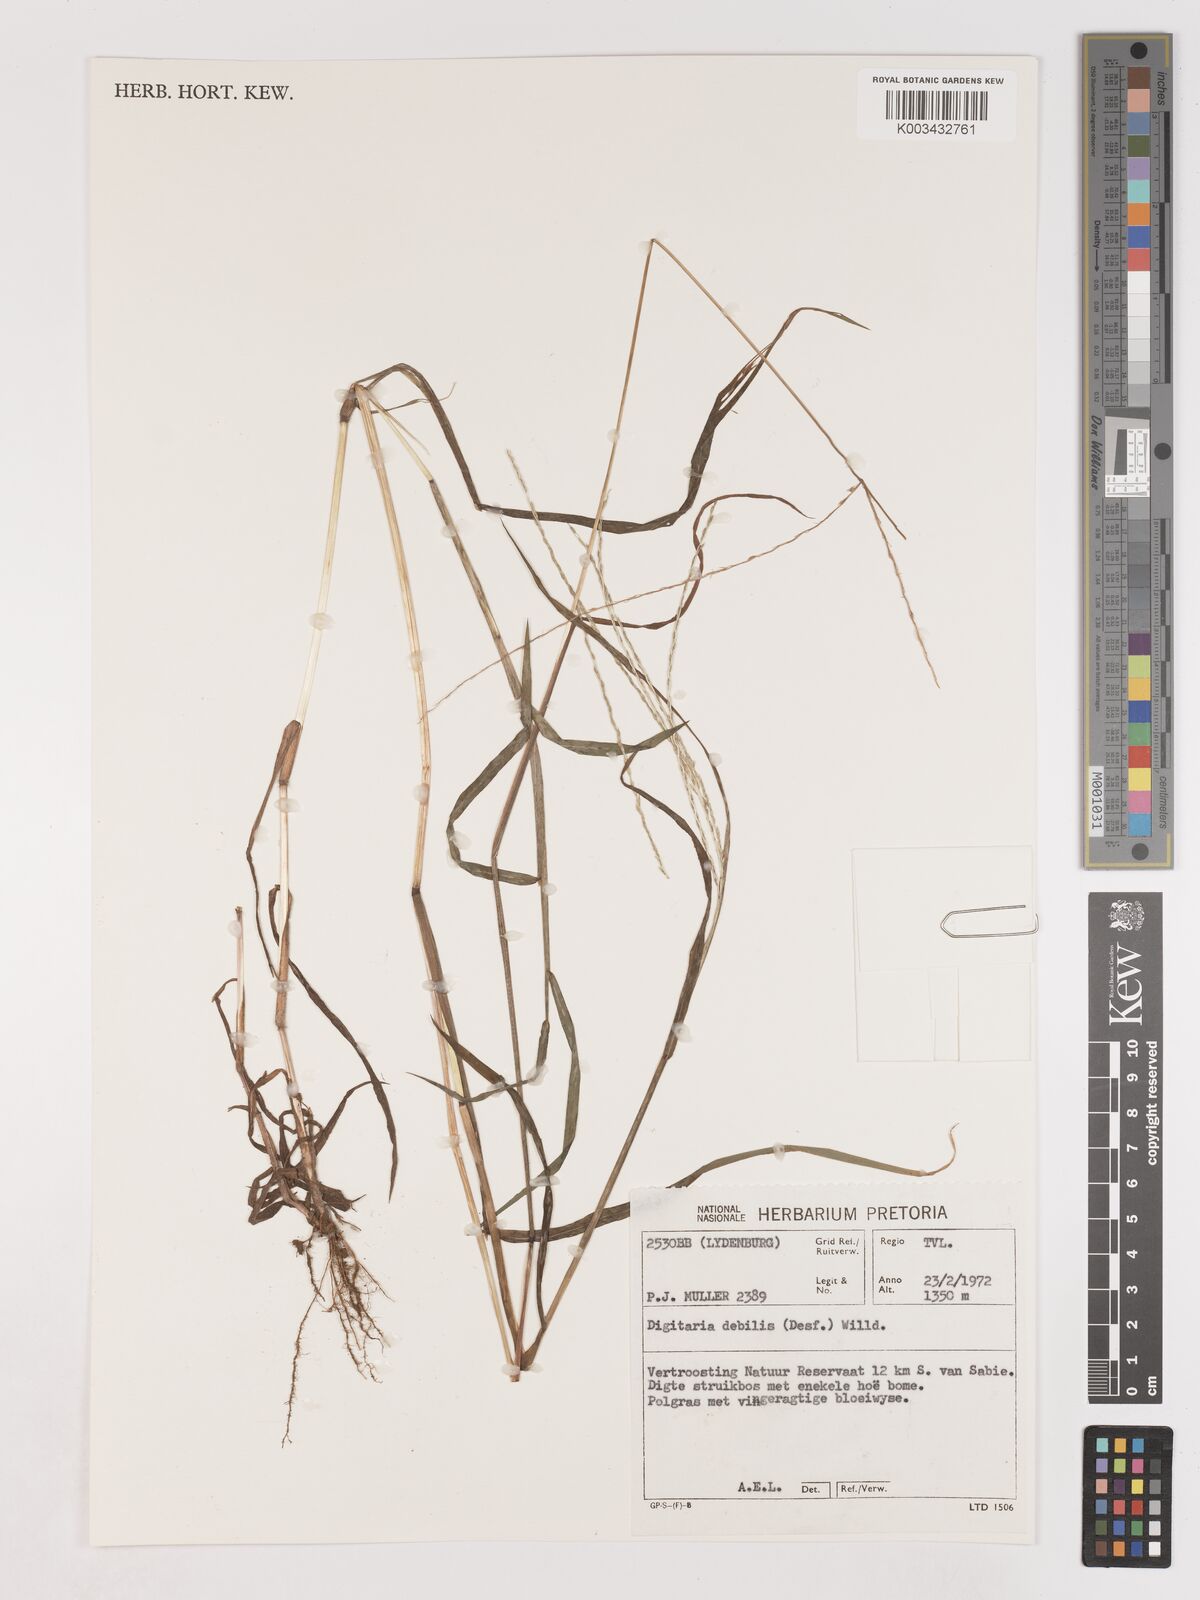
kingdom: Plantae
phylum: Tracheophyta
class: Liliopsida
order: Poales
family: Poaceae
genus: Digitaria
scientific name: Digitaria debilis
